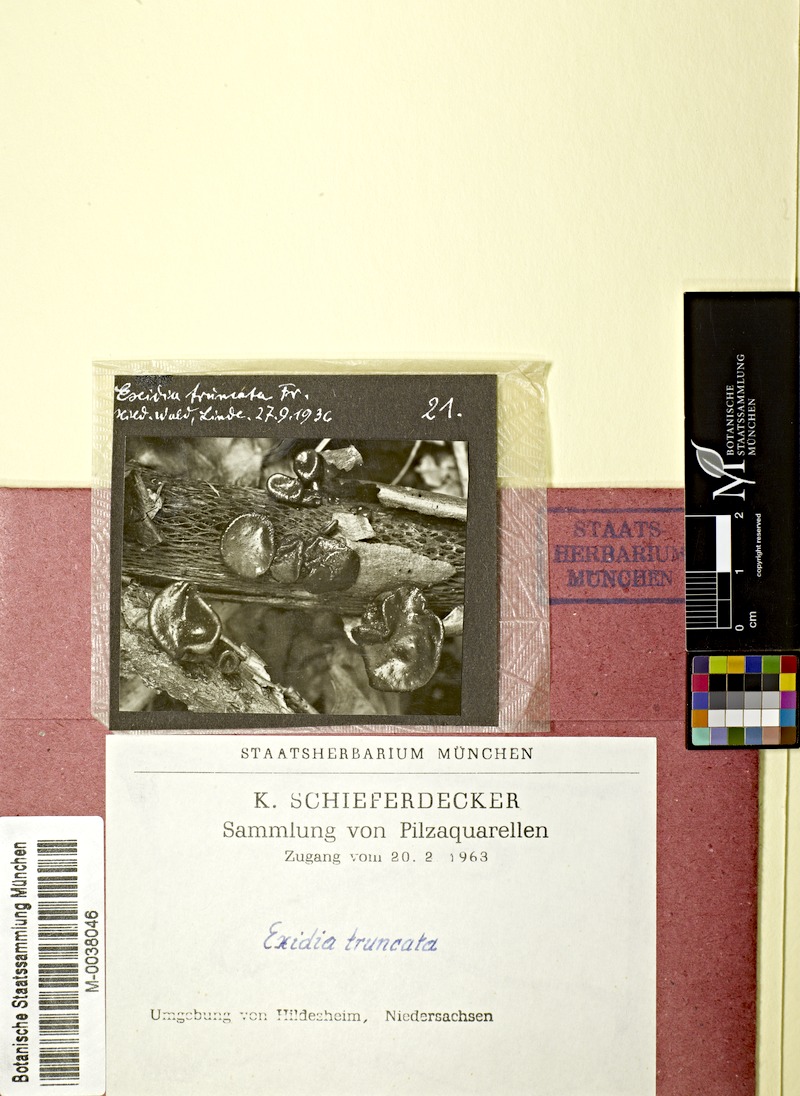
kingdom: Fungi
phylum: Basidiomycota
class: Agaricomycetes
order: Auriculariales
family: Auriculariaceae
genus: Exidia
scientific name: Exidia glandulosa
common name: Witches' butter
